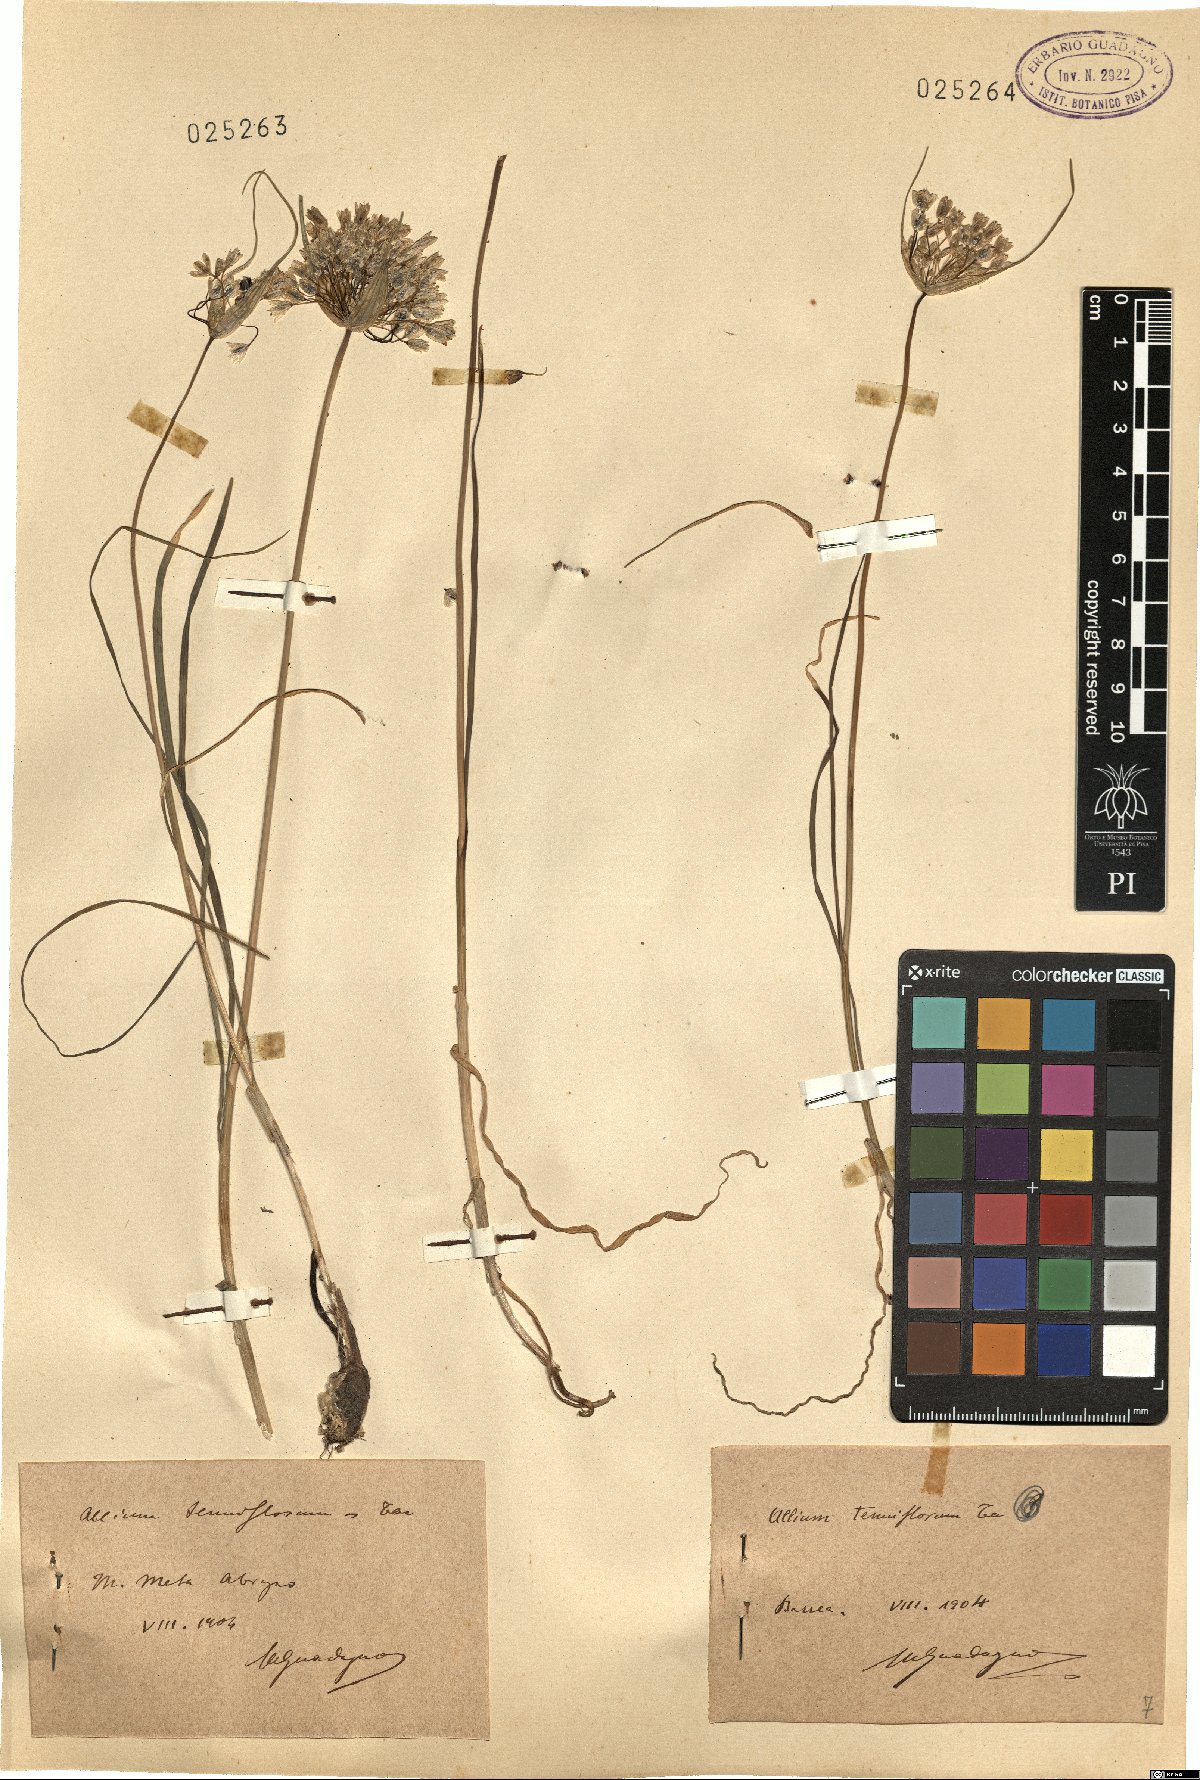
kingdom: Plantae
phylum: Tracheophyta
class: Liliopsida
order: Asparagales
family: Amaryllidaceae
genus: Allium
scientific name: Allium tenuiflorum
